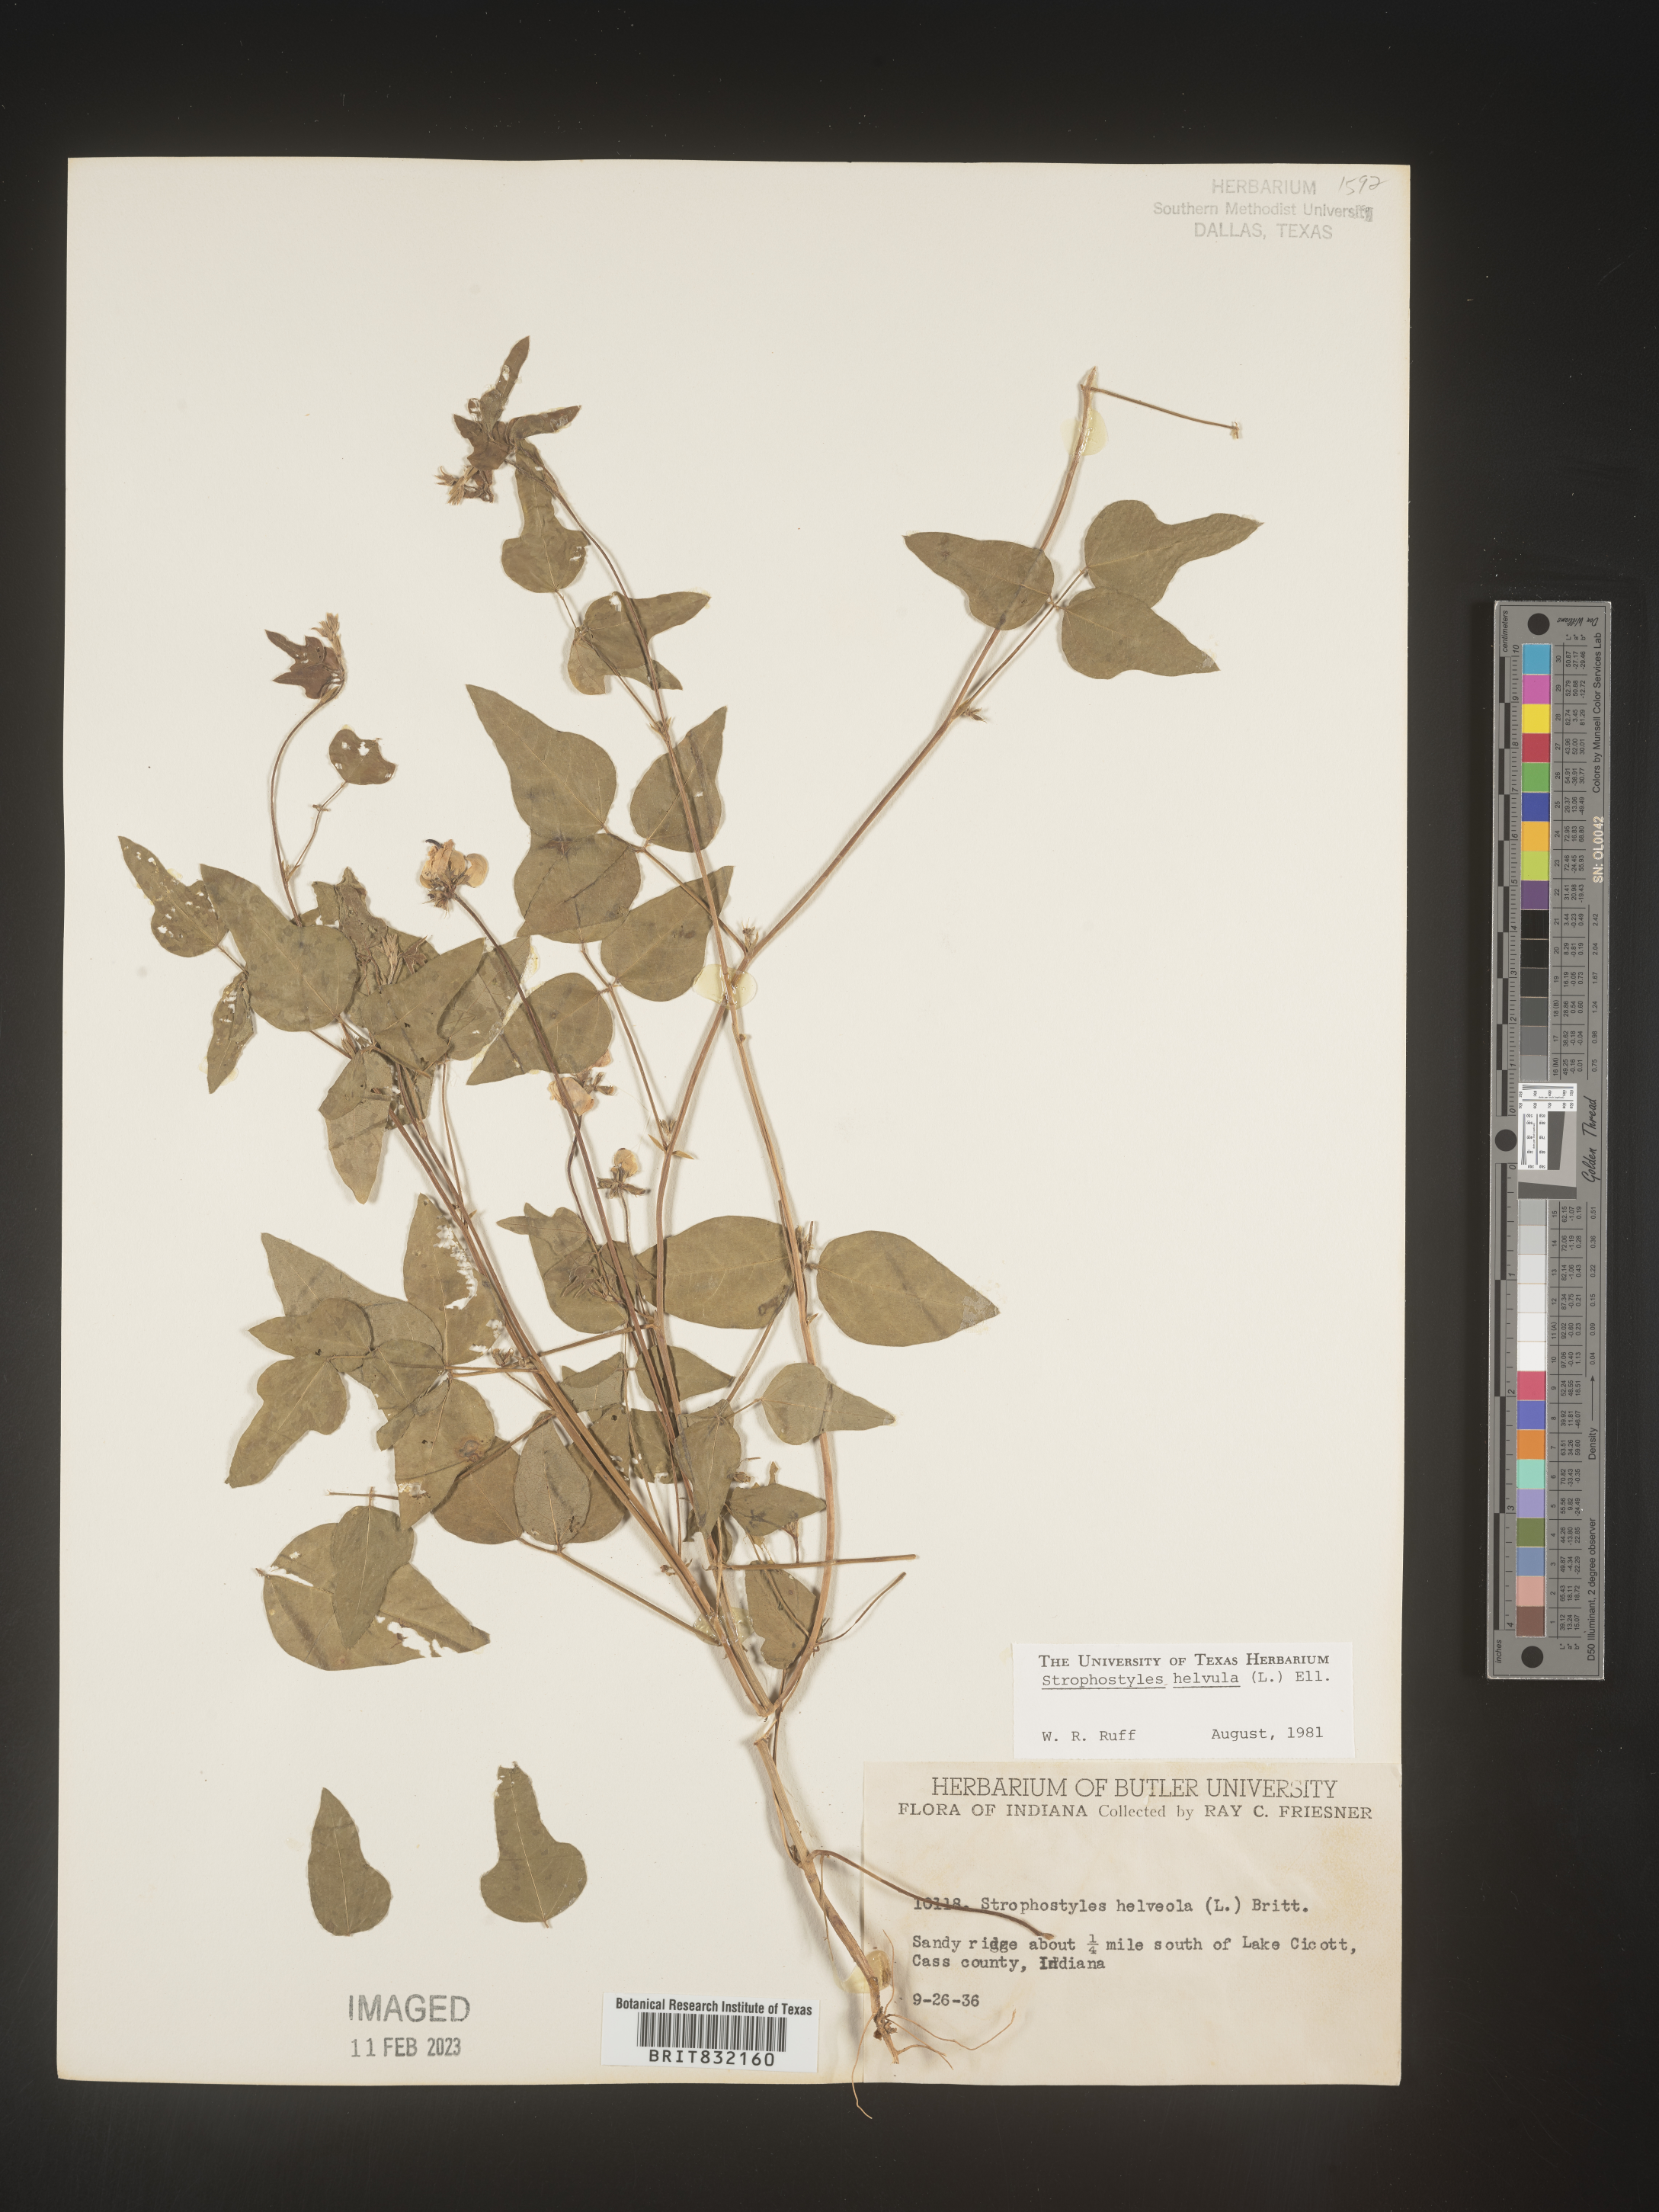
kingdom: Plantae
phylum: Tracheophyta
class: Magnoliopsida
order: Fabales
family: Fabaceae
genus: Strophostyles
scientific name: Strophostyles helvola
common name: Trailing wild bean
